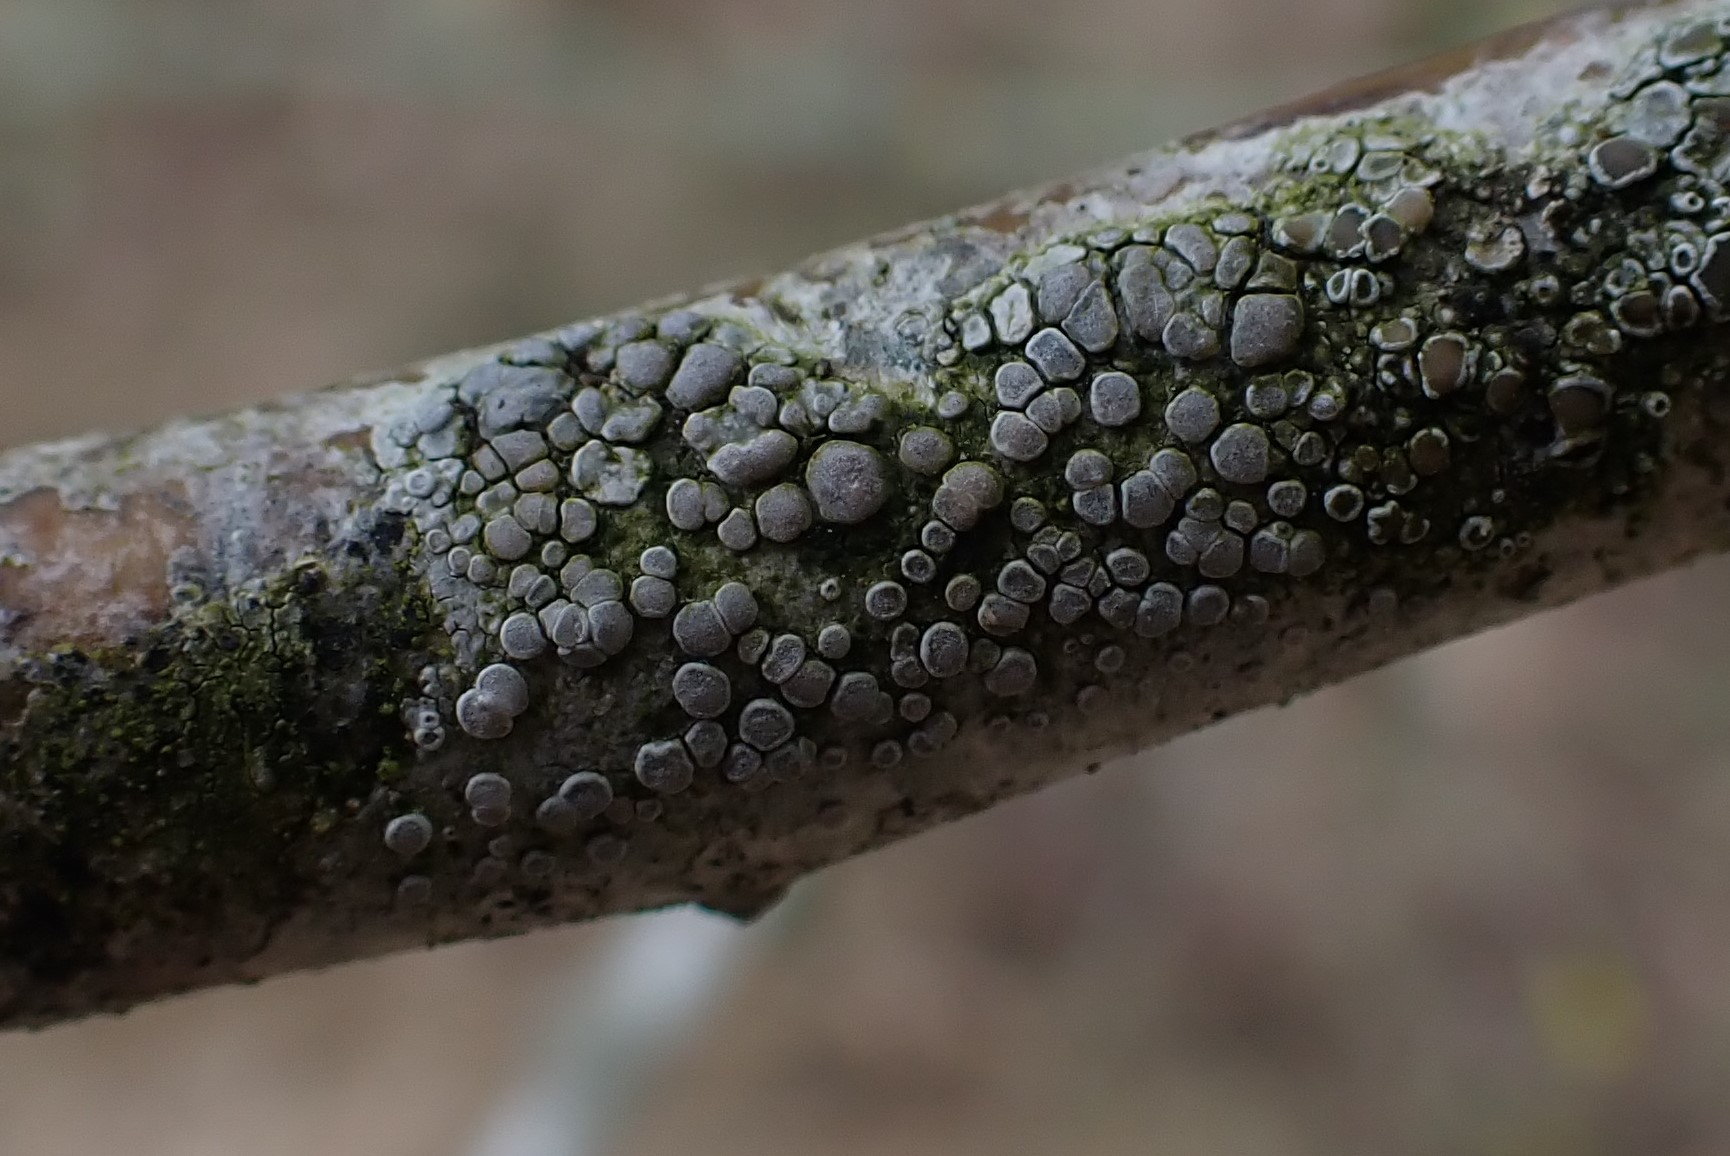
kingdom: Fungi
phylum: Ascomycota
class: Lecanoromycetes
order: Lecanorales
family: Lecanoraceae
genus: Glaucomaria
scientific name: Glaucomaria carpinea
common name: hviddugget kantskivelav
